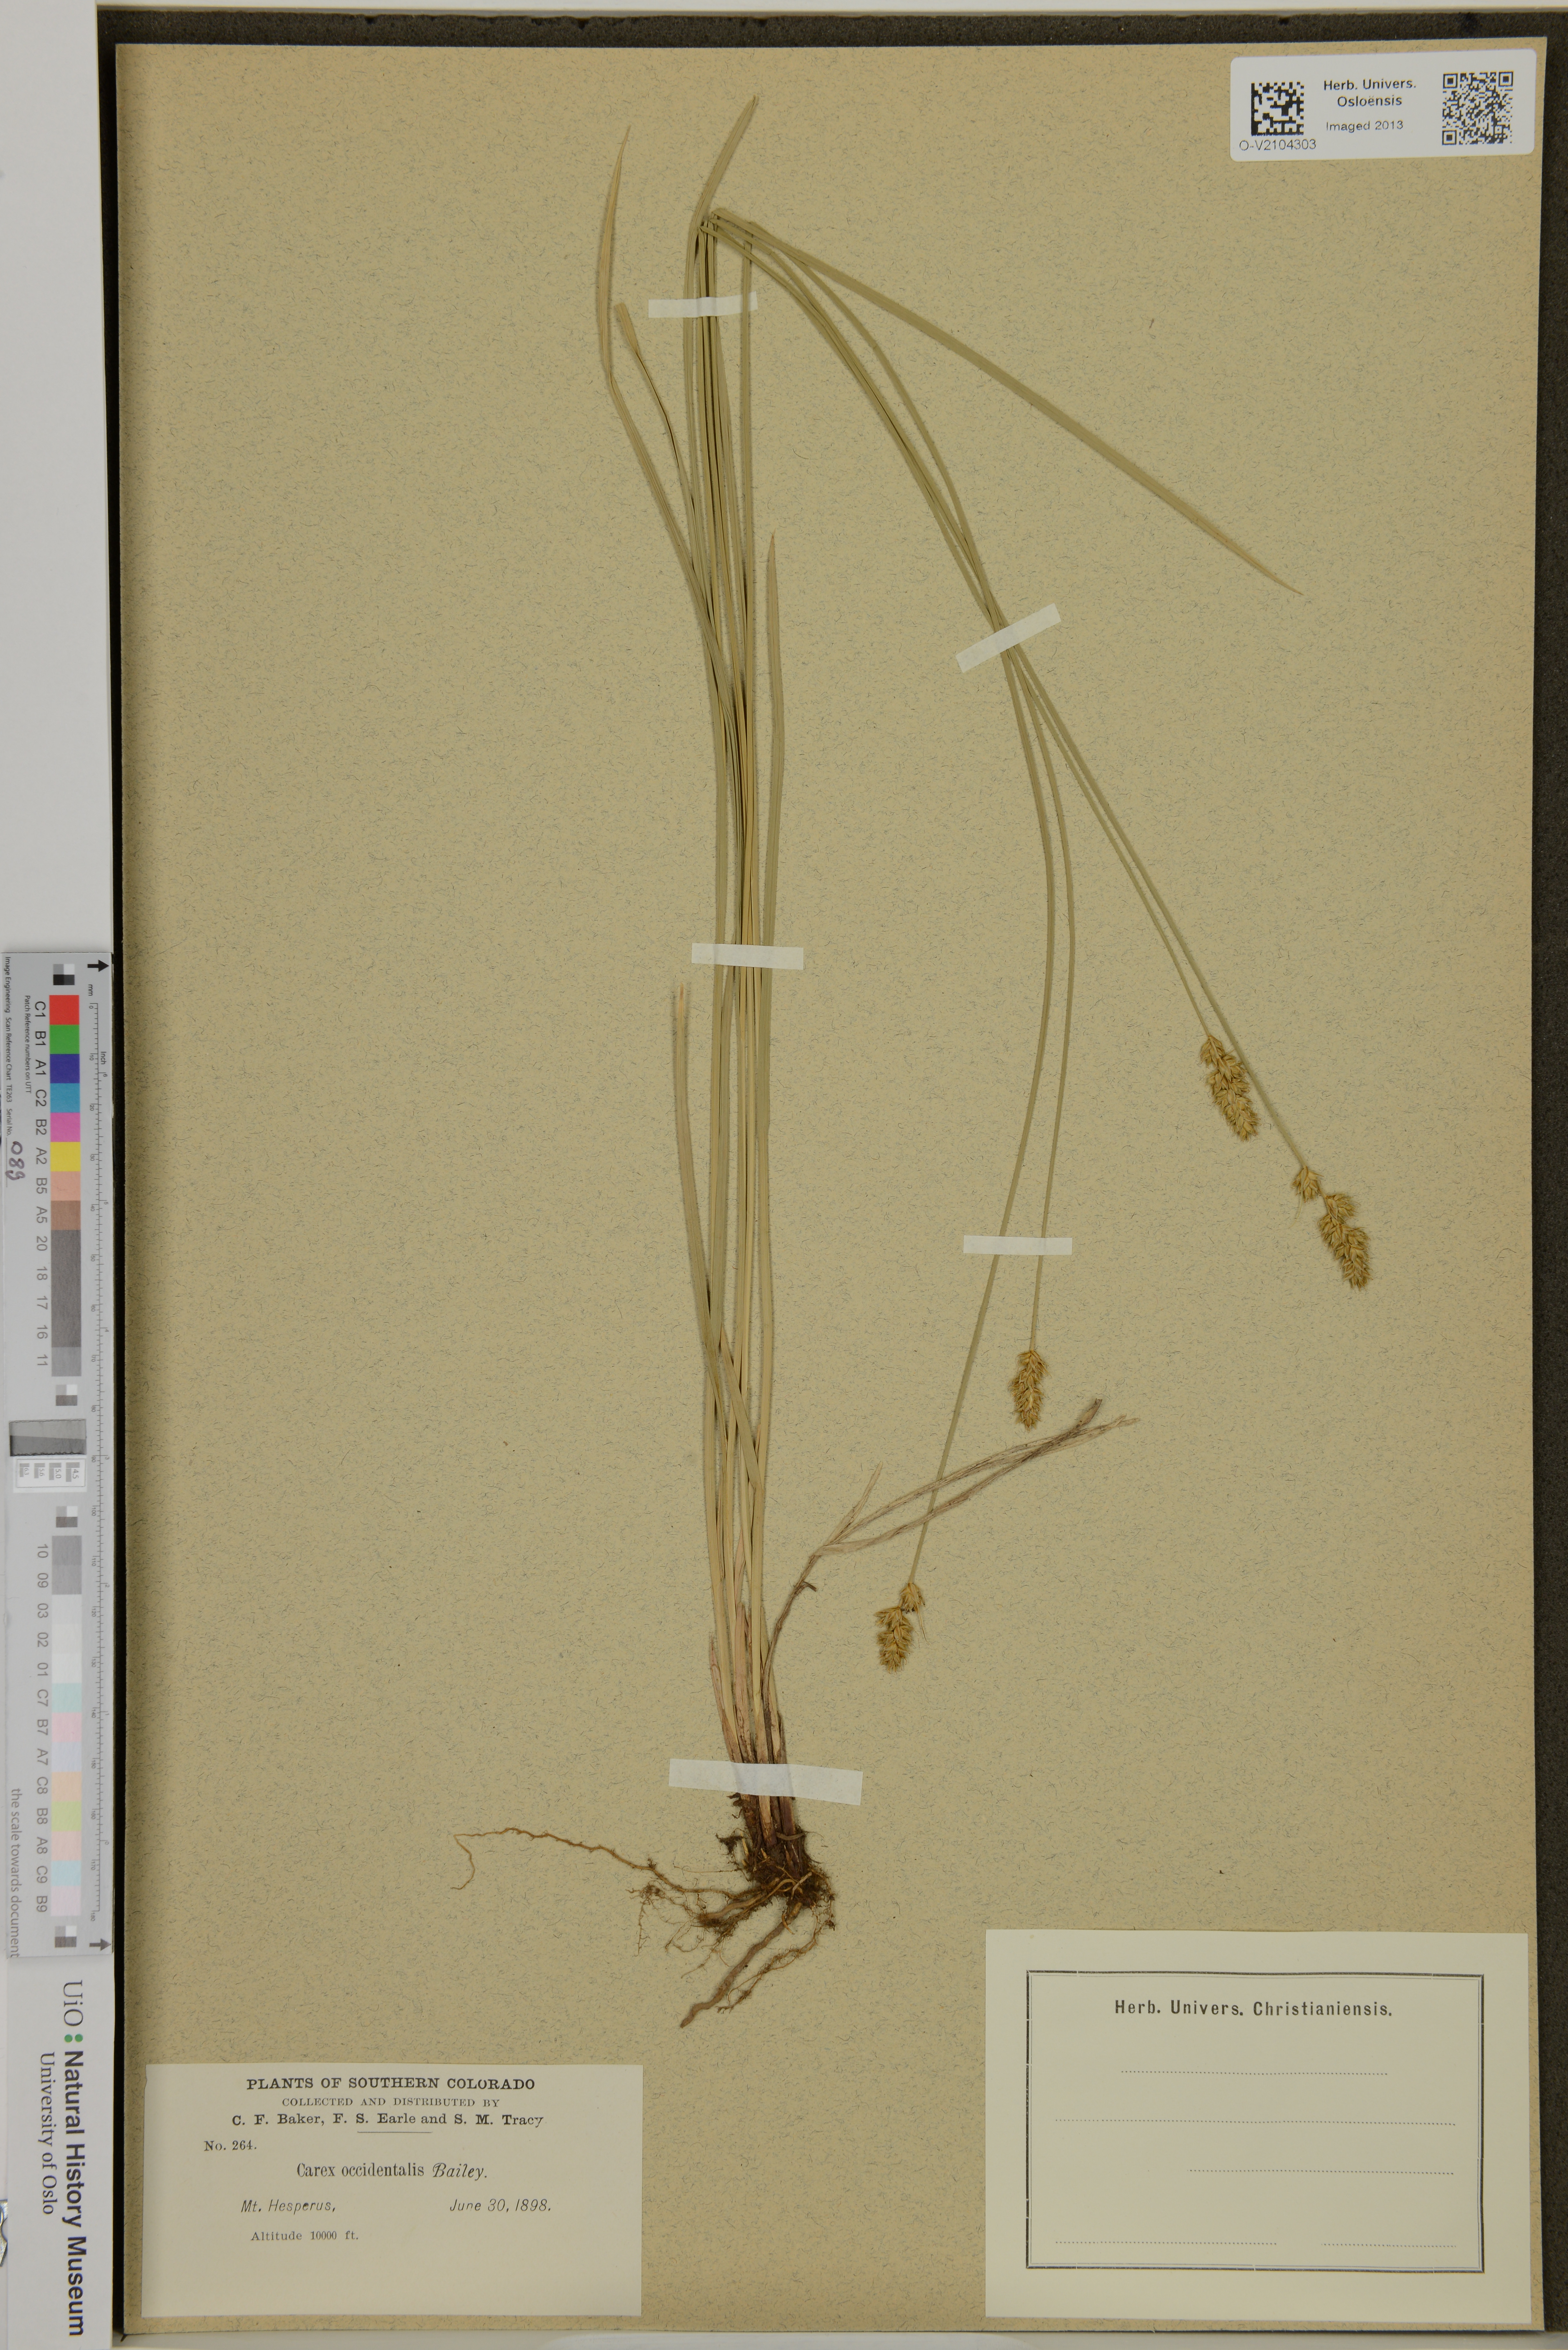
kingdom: Plantae
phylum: Tracheophyta
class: Liliopsida
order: Poales
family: Cyperaceae
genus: Carex
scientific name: Carex occidentalis
